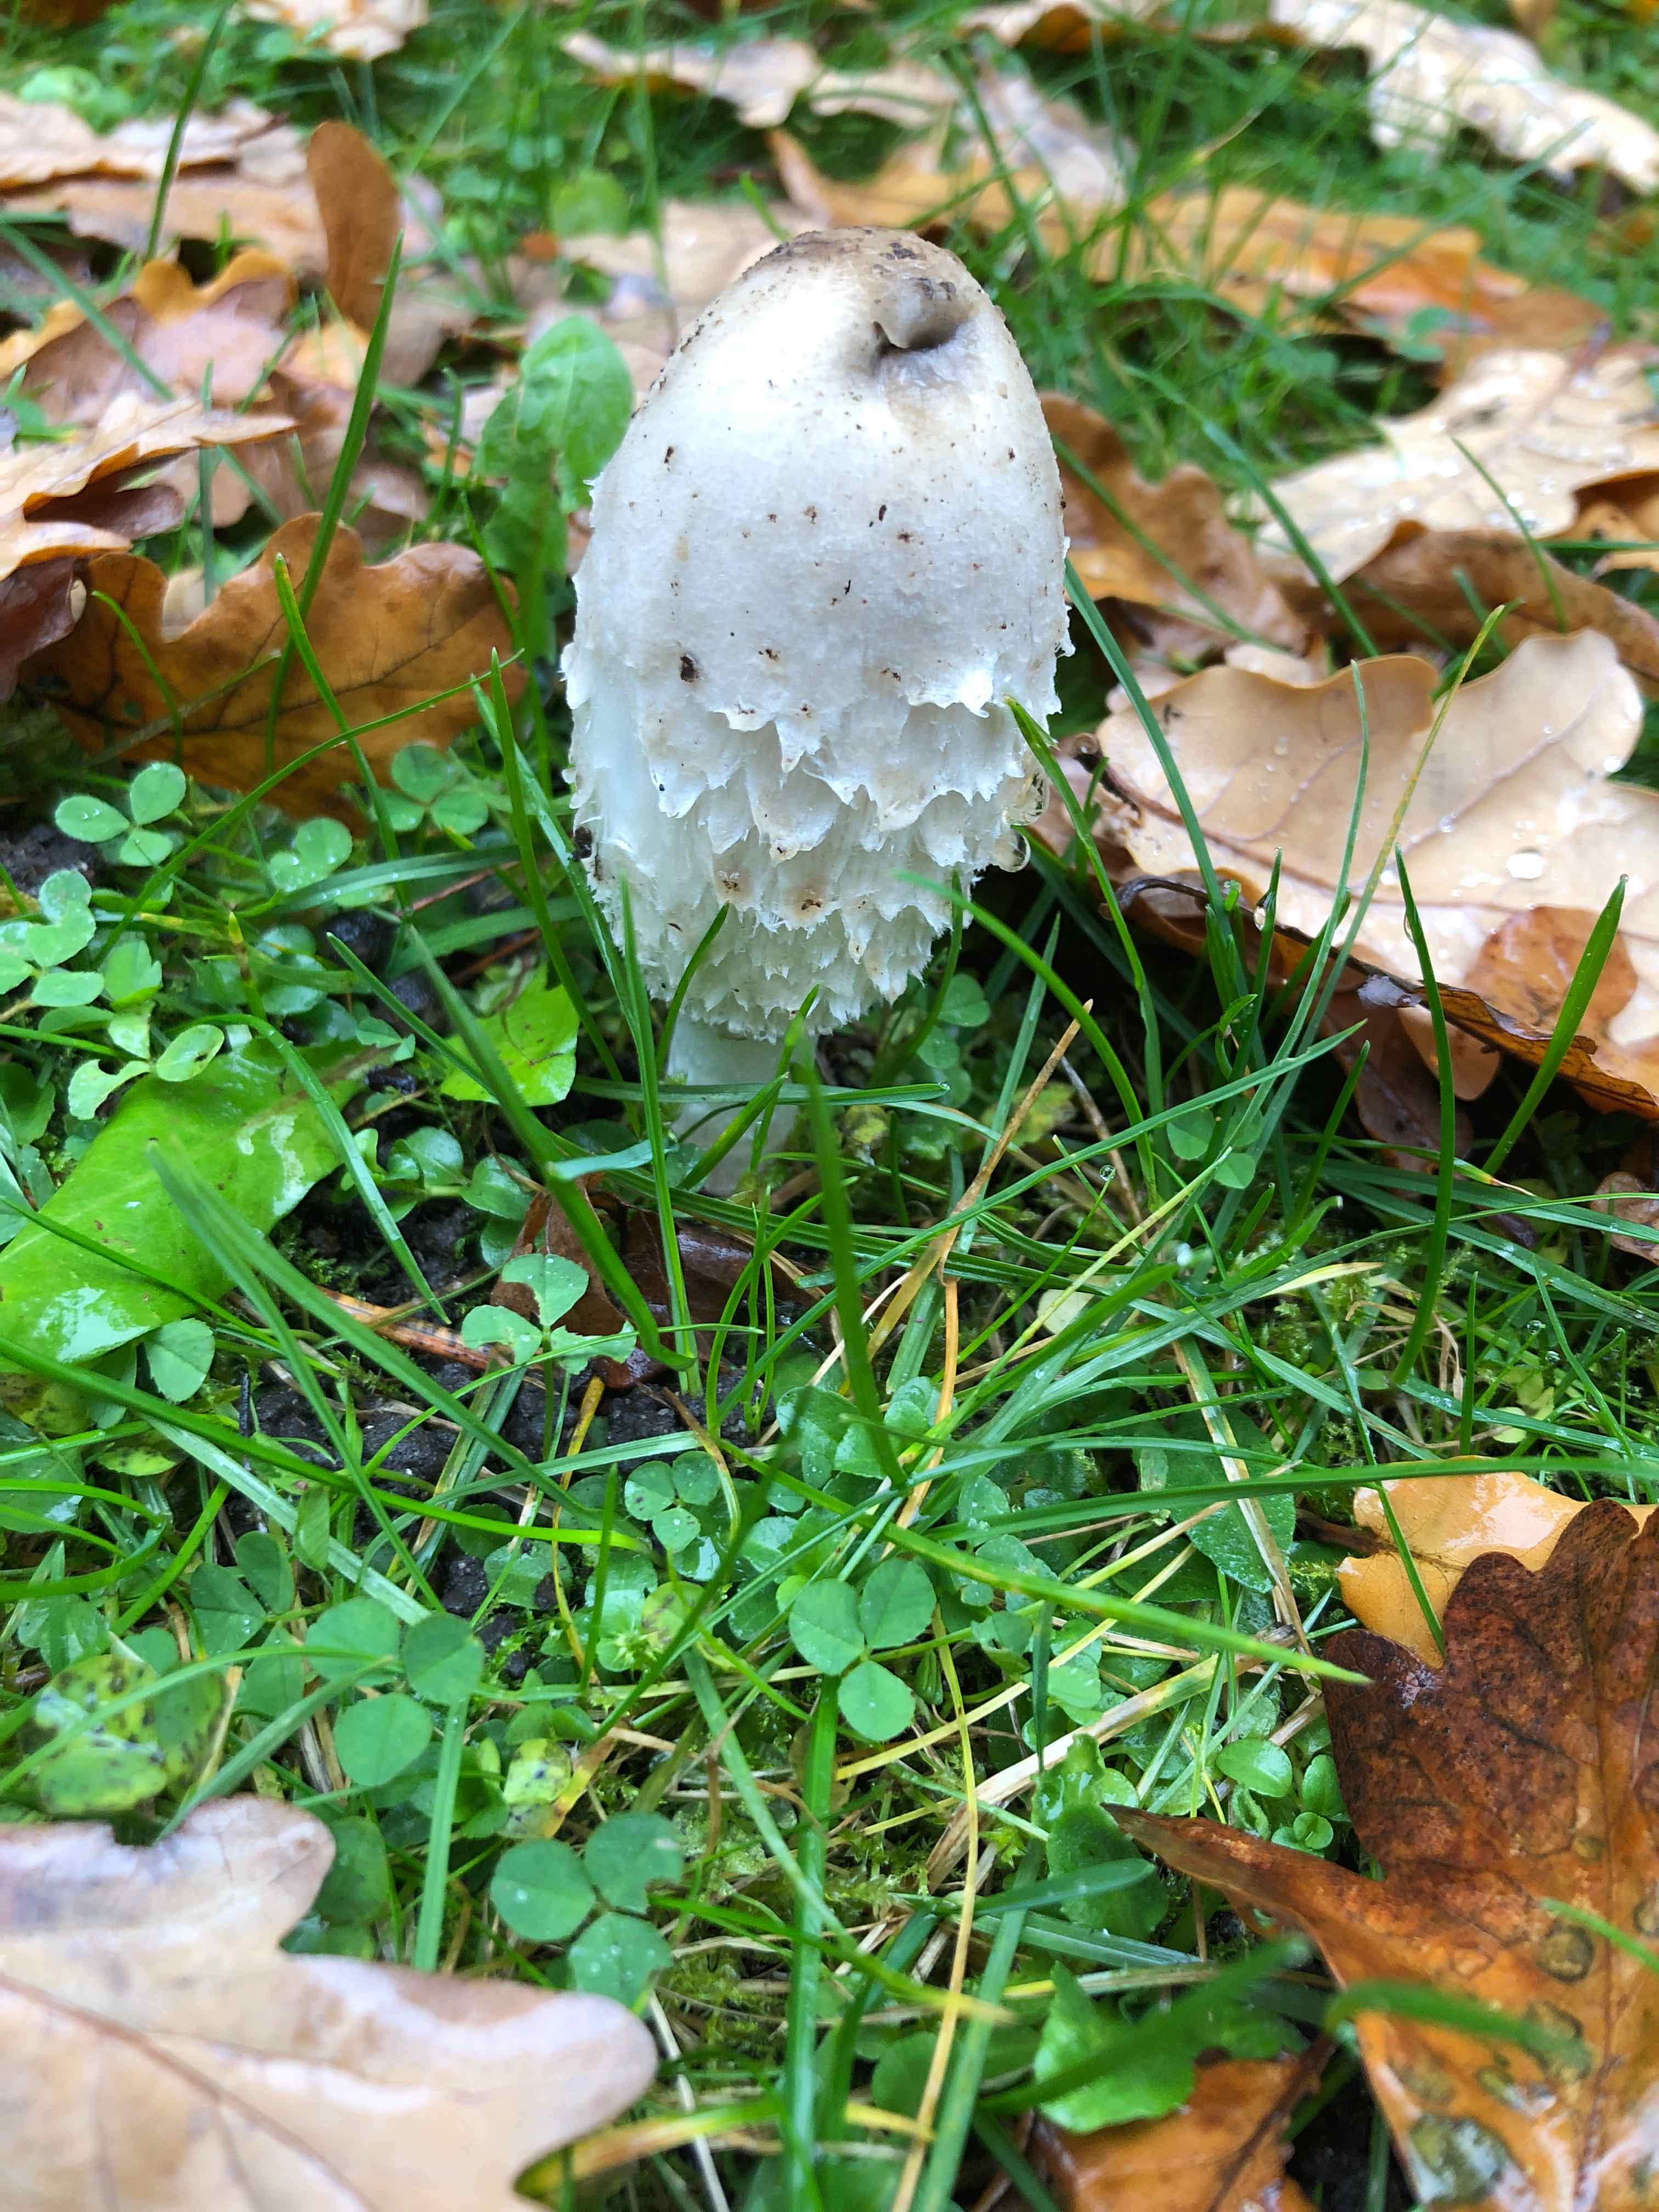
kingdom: Fungi
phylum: Basidiomycota
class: Agaricomycetes
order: Agaricales
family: Agaricaceae
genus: Coprinus
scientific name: Coprinus comatus
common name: stor parykhat
